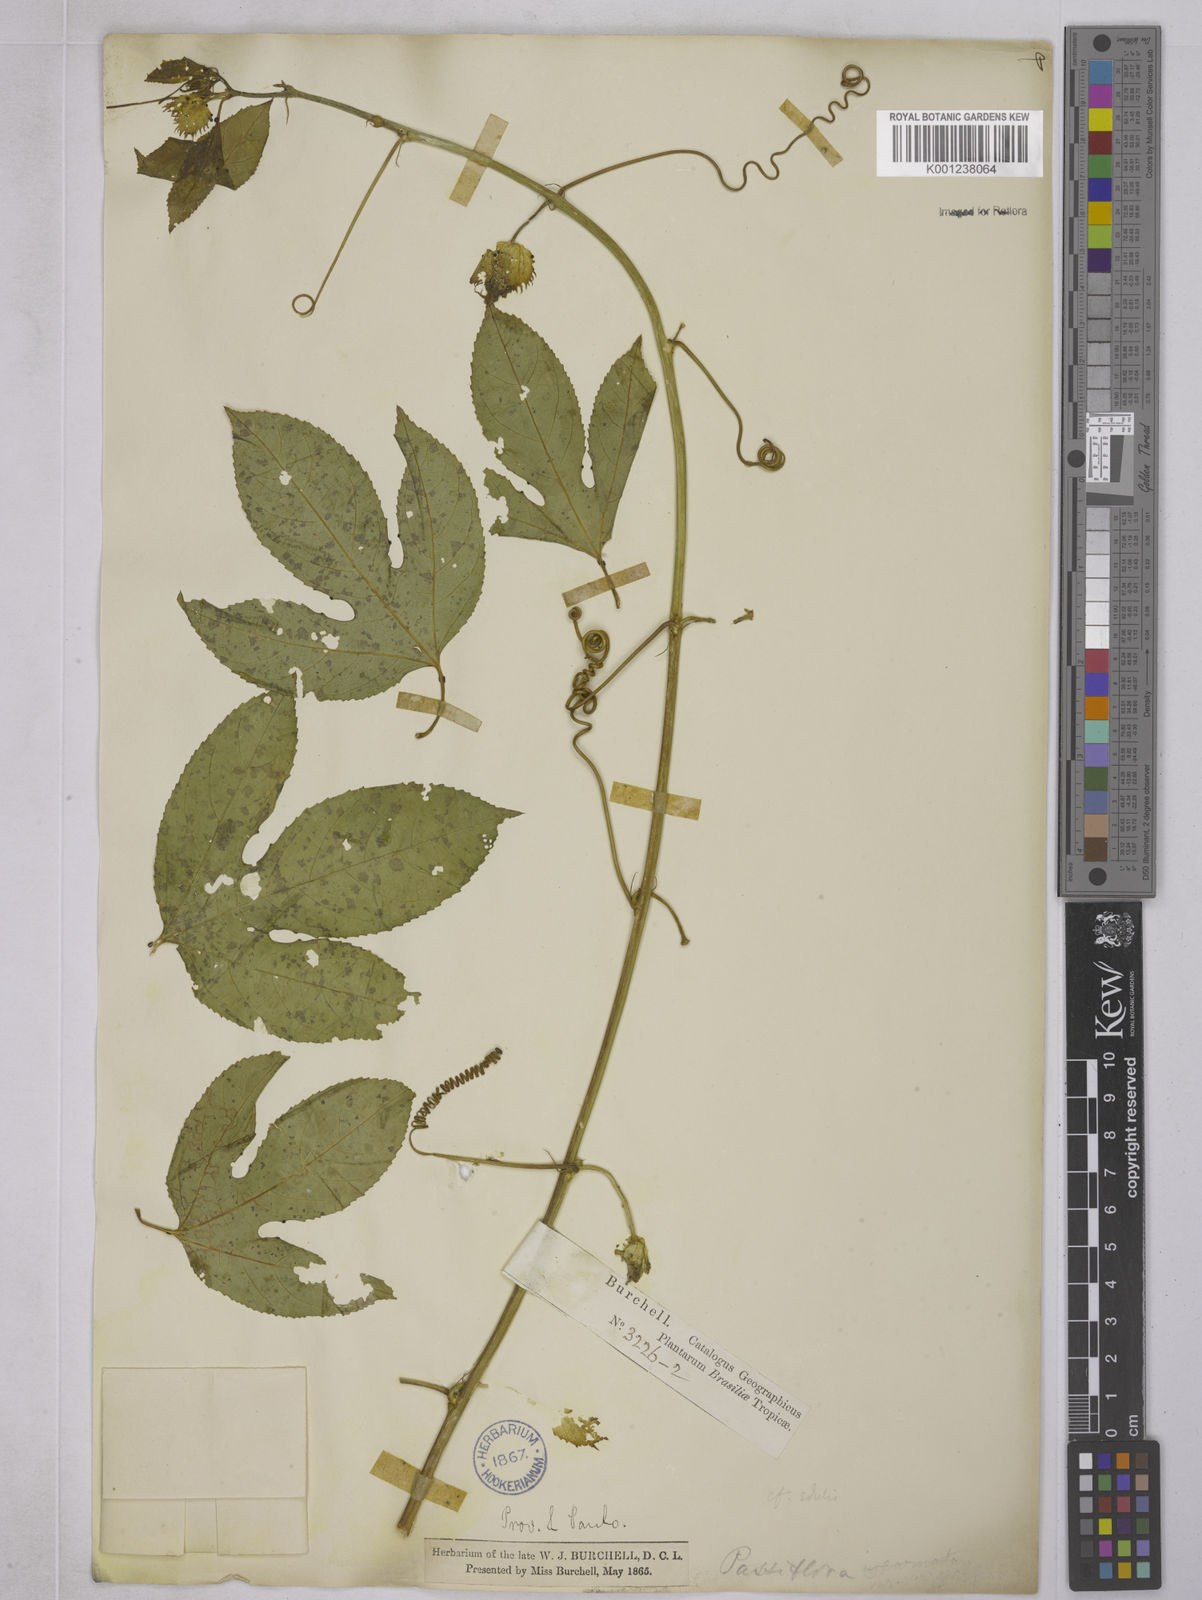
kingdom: Plantae
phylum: Tracheophyta
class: Magnoliopsida
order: Malpighiales
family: Passifloraceae
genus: Passiflora
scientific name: Passiflora edulis
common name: Purple granadilla
